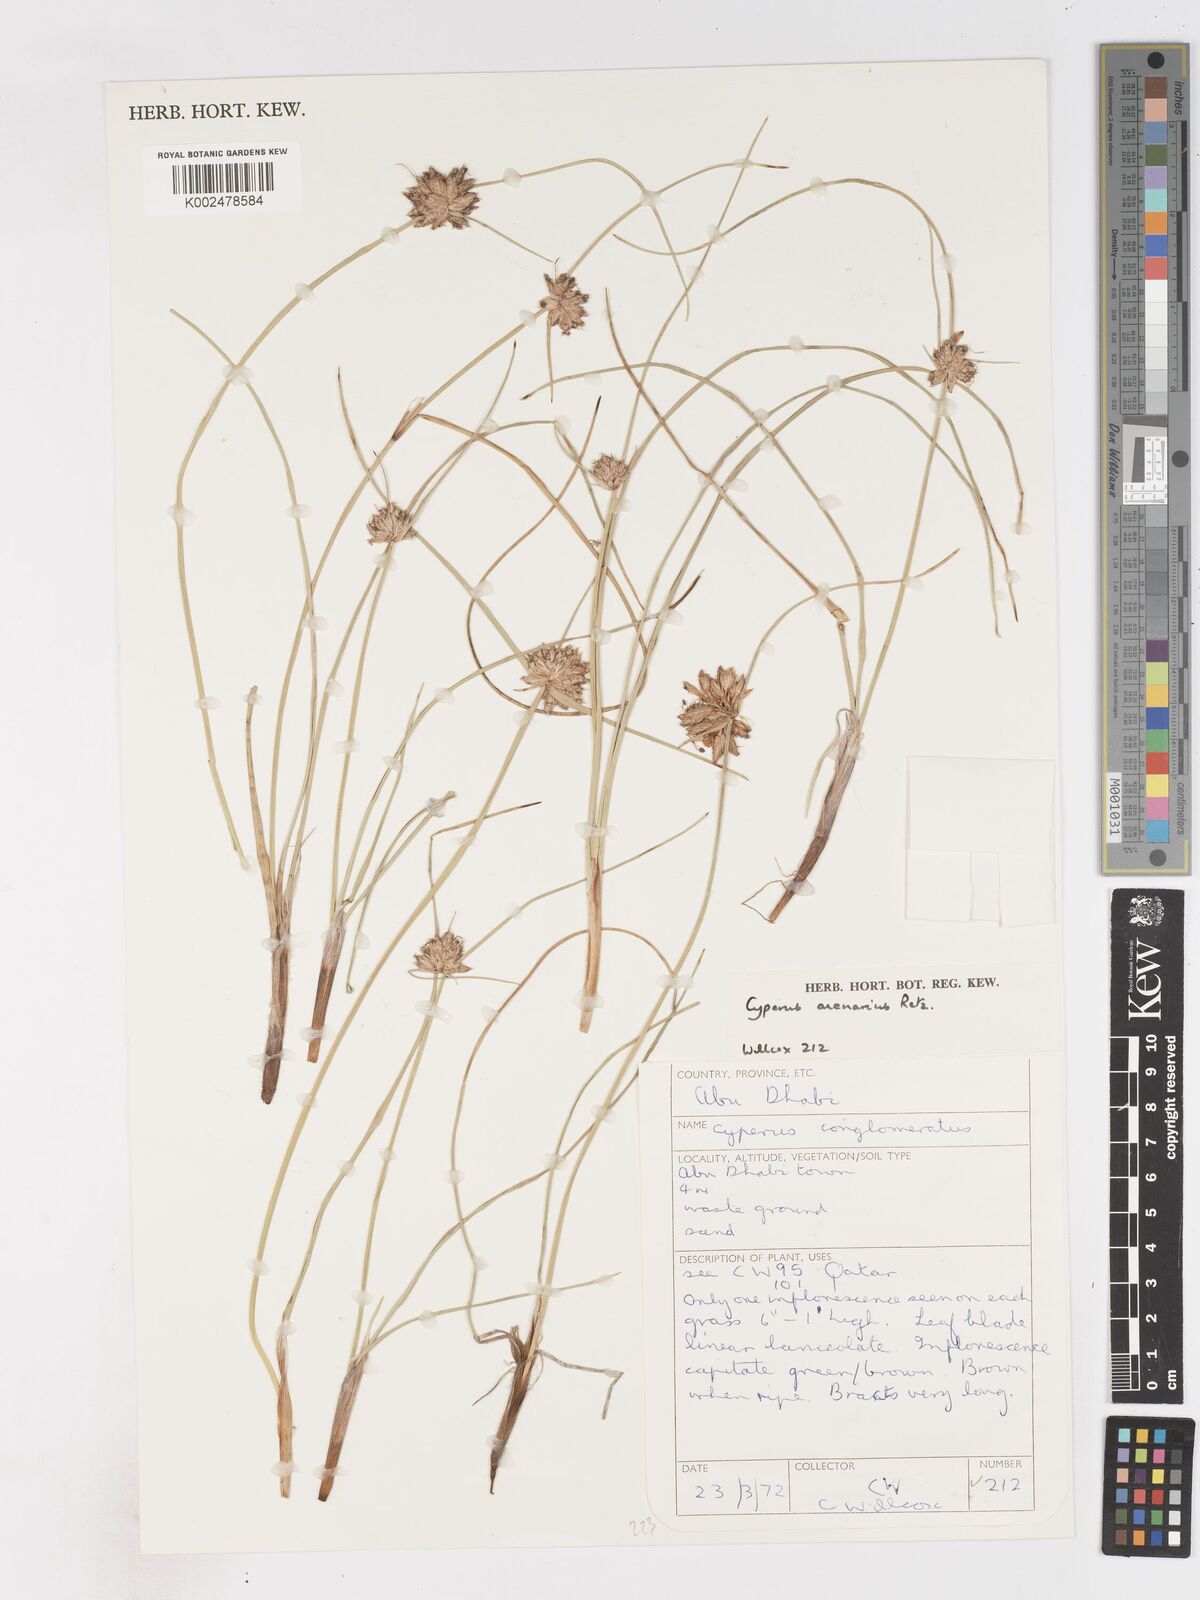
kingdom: Plantae
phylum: Tracheophyta
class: Liliopsida
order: Poales
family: Cyperaceae
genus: Cyperus
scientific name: Cyperus arenarius
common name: Dwarf sedge
